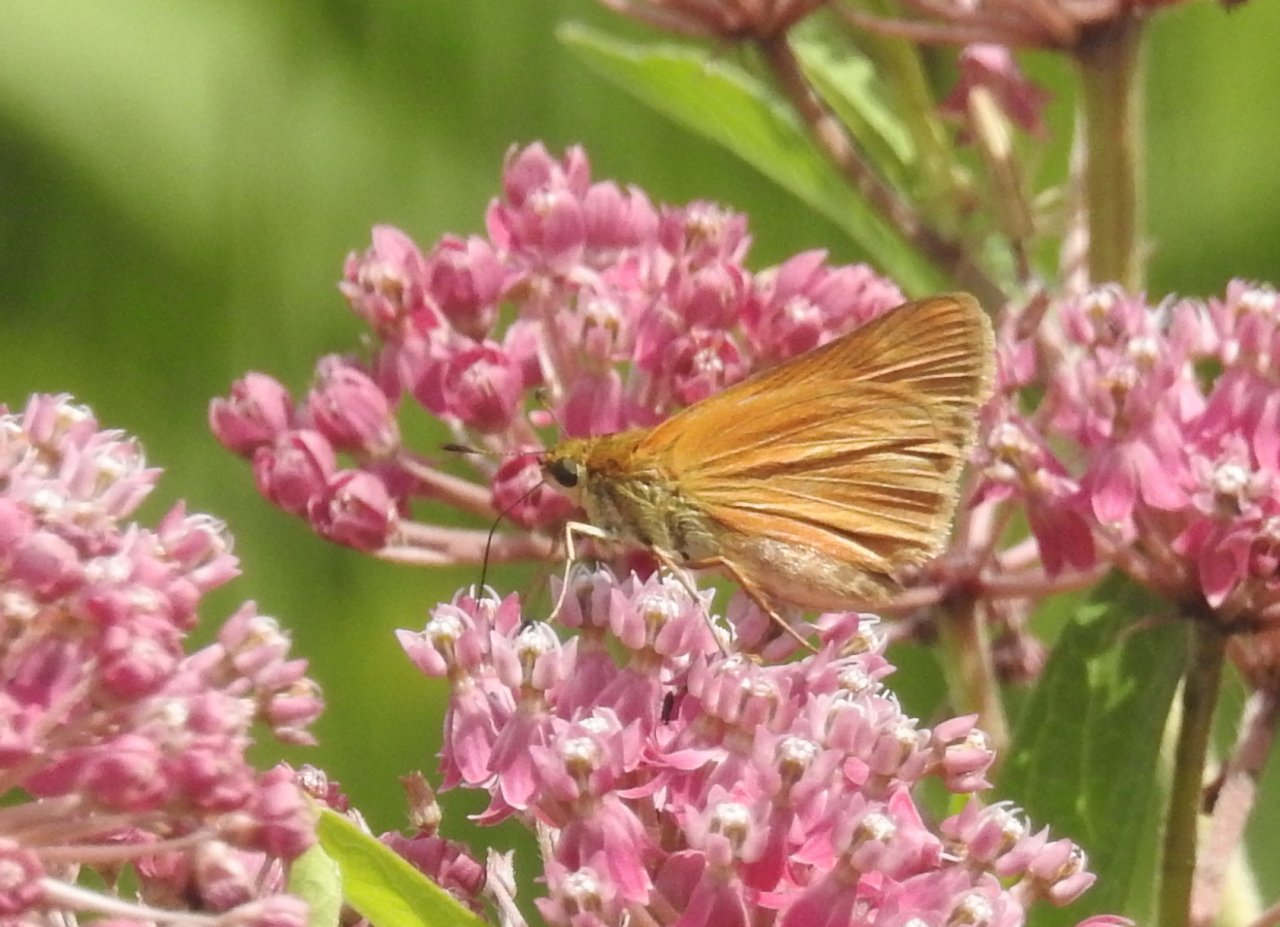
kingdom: Animalia
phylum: Arthropoda
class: Insecta
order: Lepidoptera
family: Hesperiidae
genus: Euphyes
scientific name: Euphyes dion
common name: Dion Skipper
